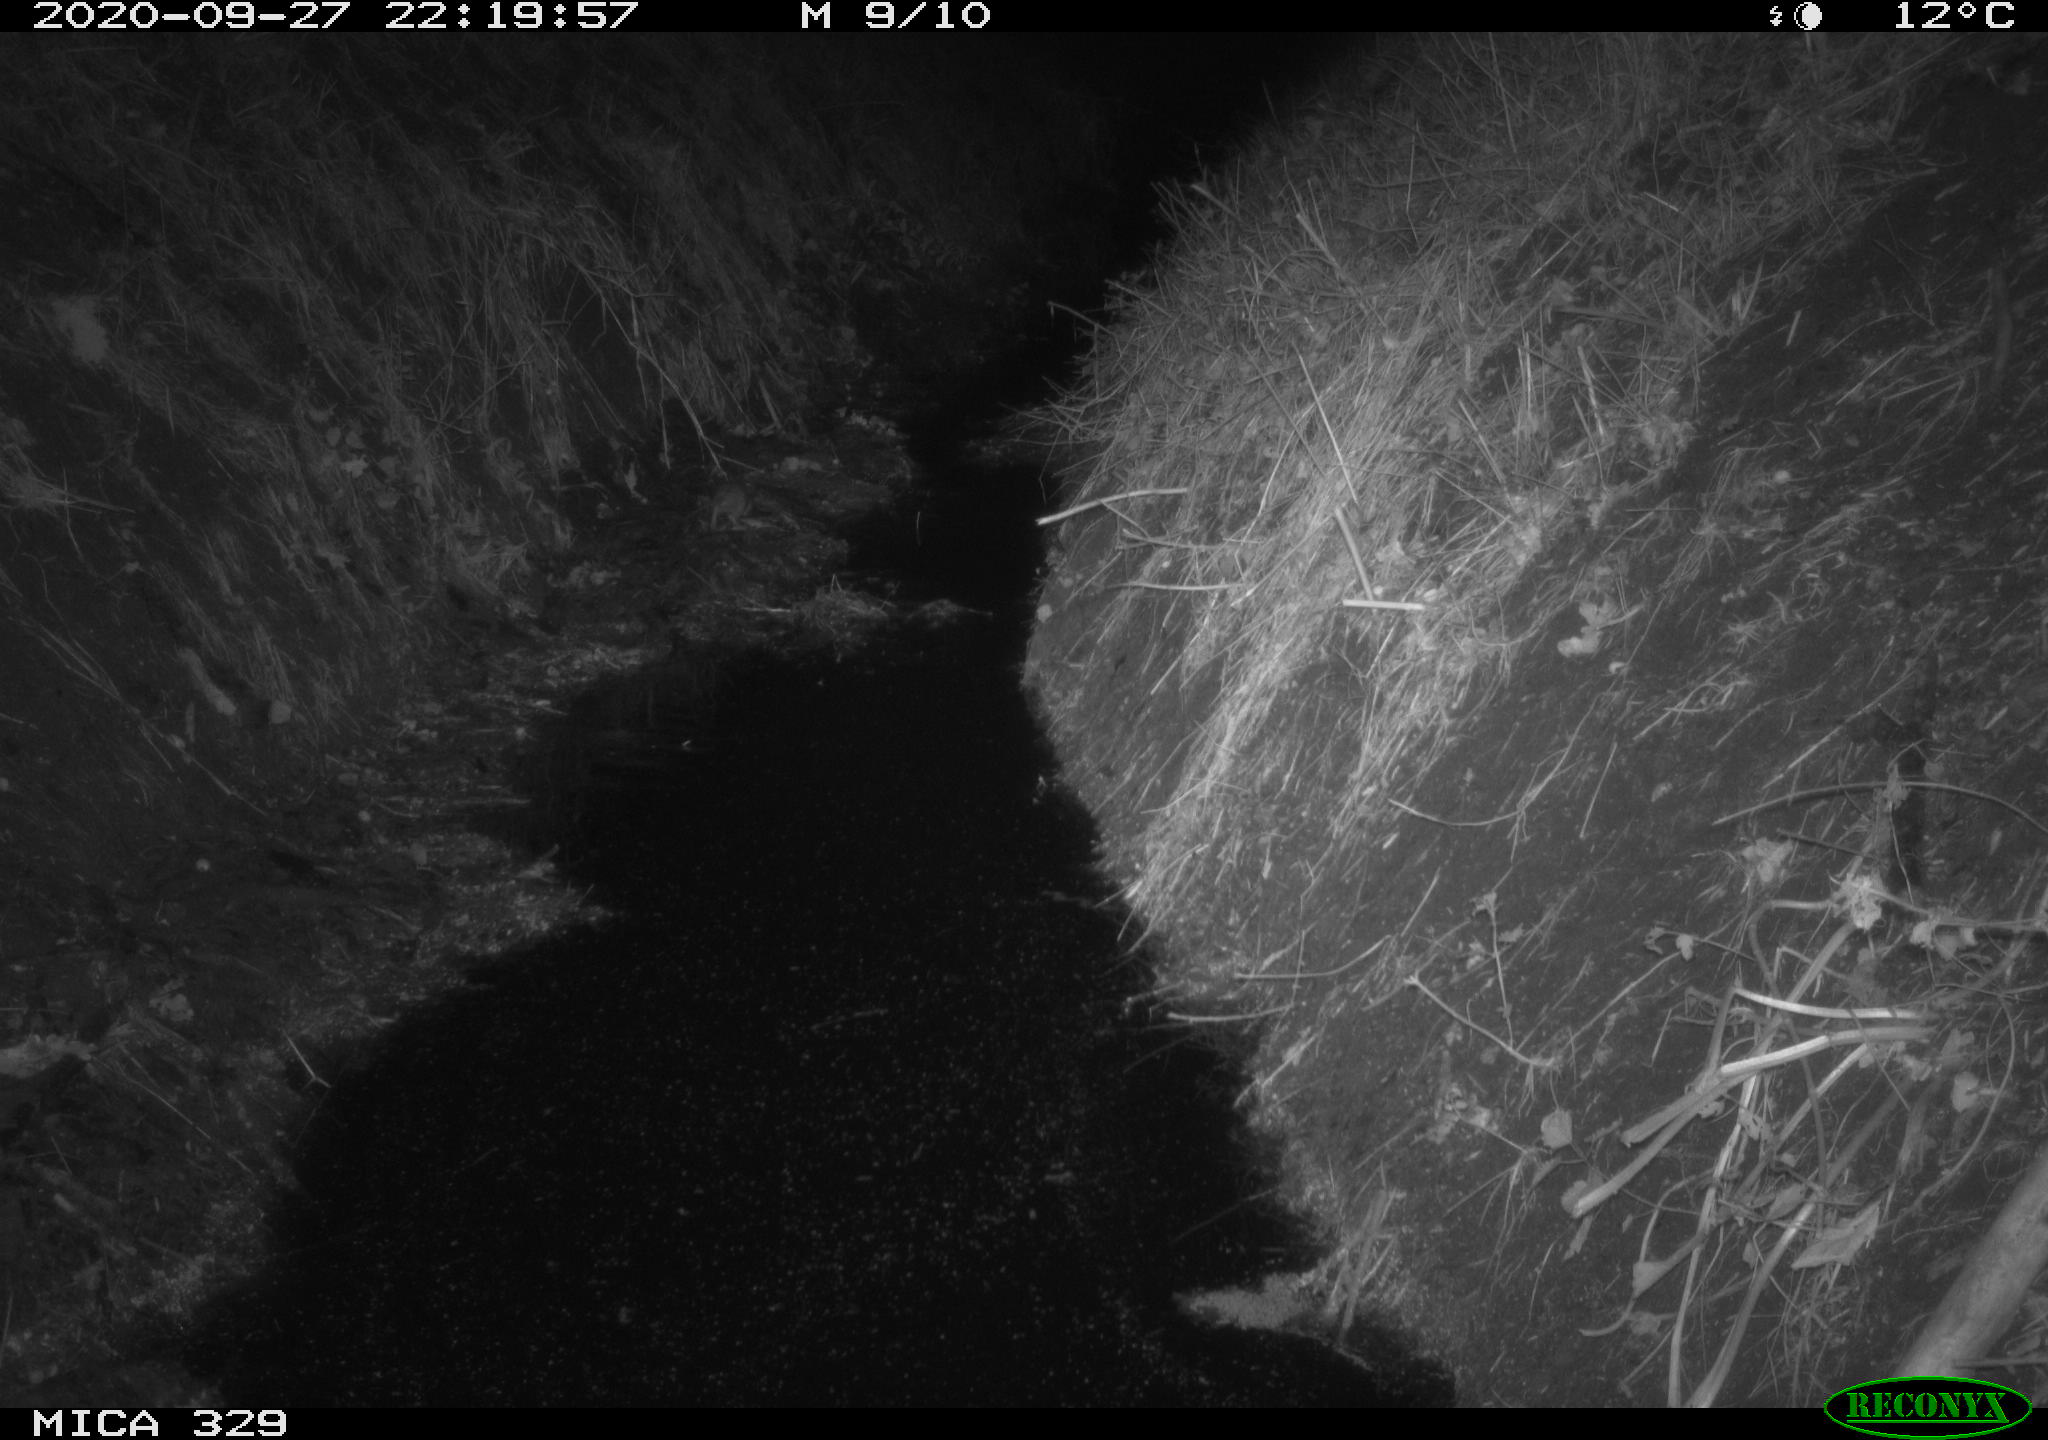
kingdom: Animalia
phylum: Chordata
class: Mammalia
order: Rodentia
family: Muridae
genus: Rattus
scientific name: Rattus norvegicus
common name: Brown rat
